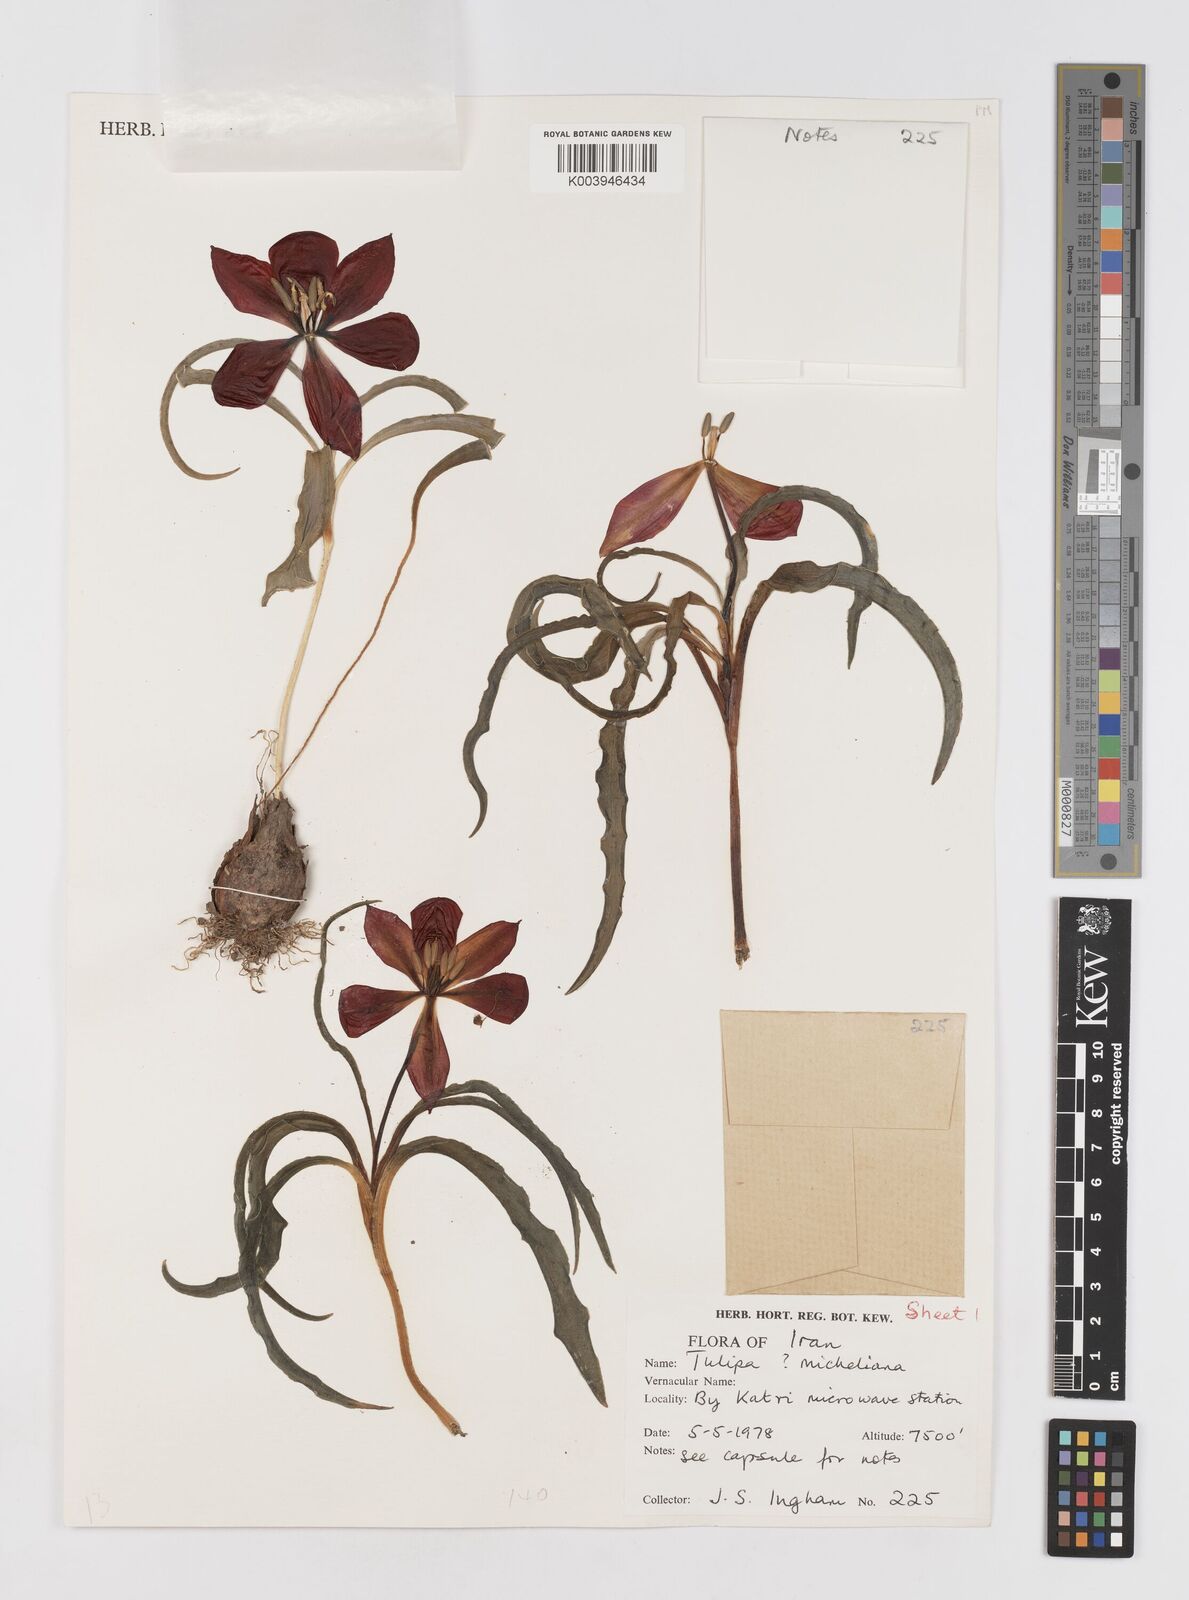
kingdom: Plantae
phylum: Tracheophyta
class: Liliopsida
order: Liliales
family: Liliaceae
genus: Tulipa
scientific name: Tulipa
